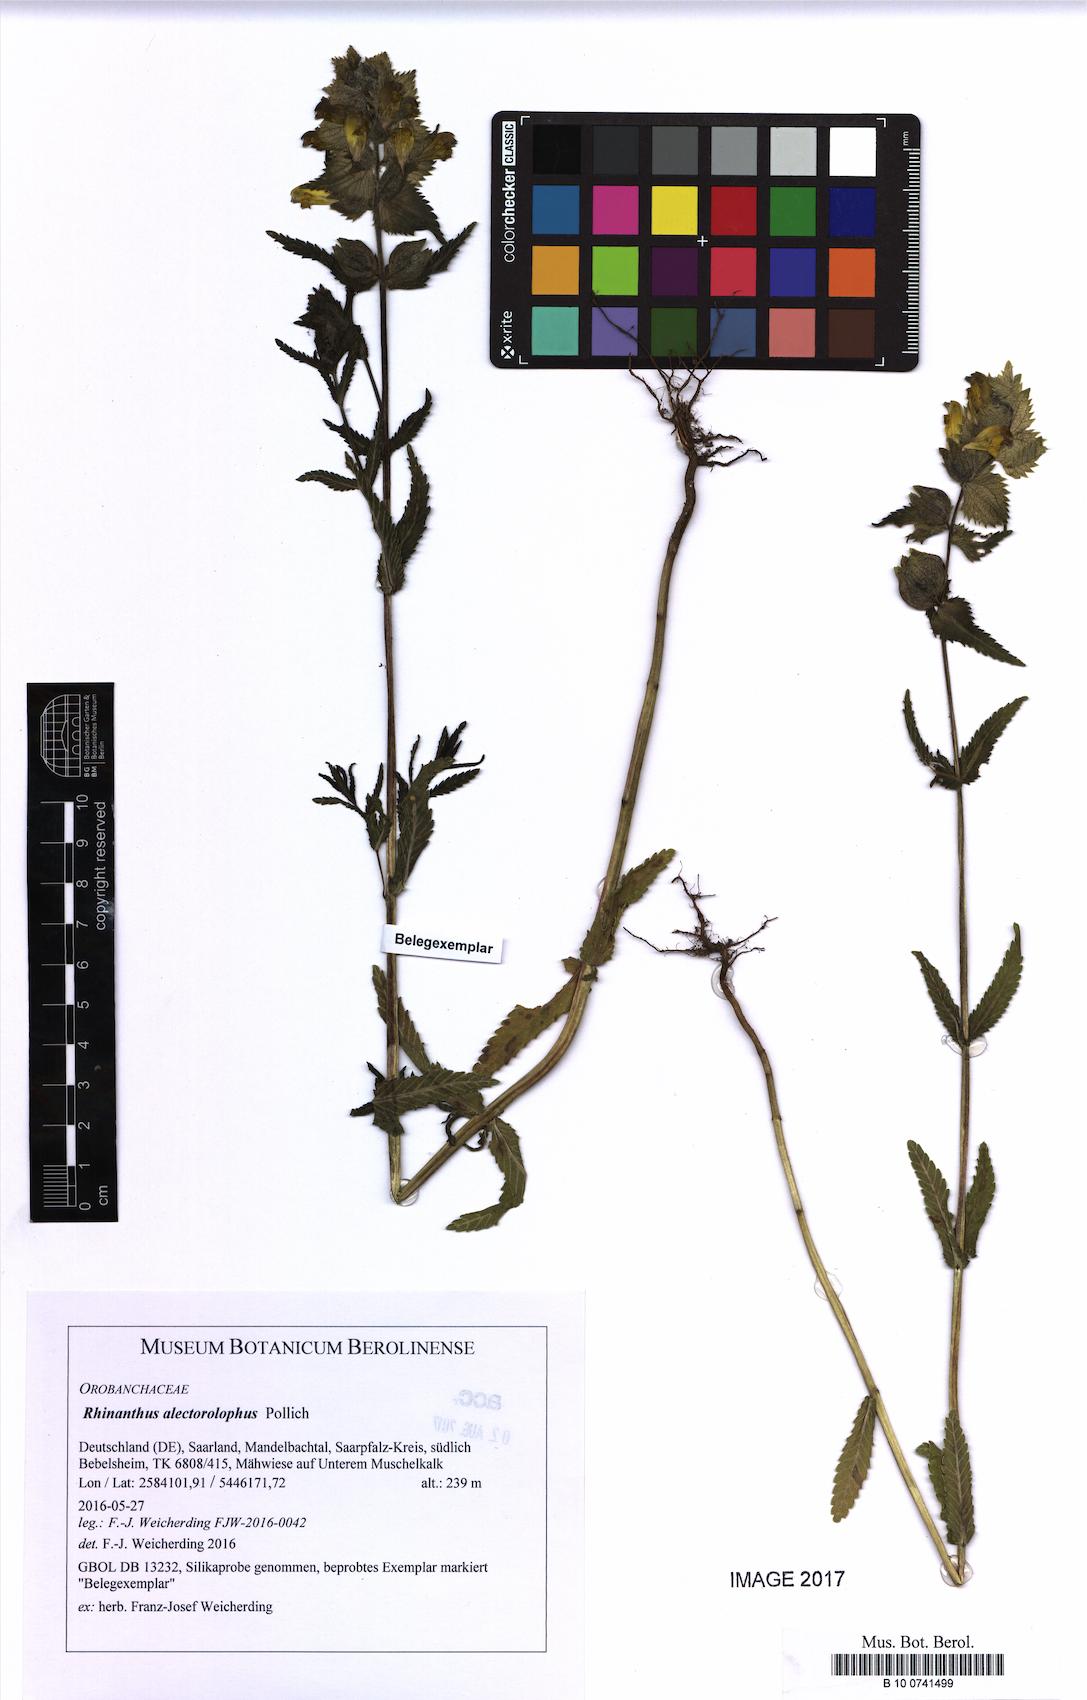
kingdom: Plantae
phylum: Tracheophyta
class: Magnoliopsida
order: Lamiales
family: Orobanchaceae
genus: Rhinanthus
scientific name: Rhinanthus alectorolophus
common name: Greater yellow-rattle
